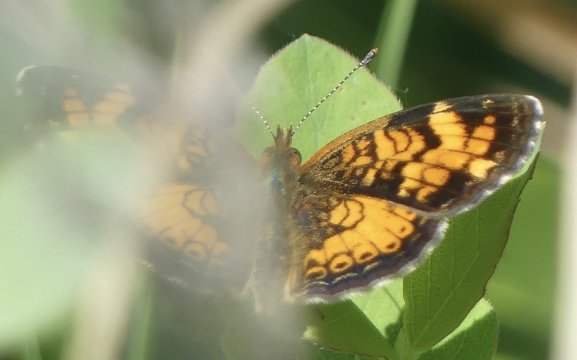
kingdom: Animalia
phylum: Arthropoda
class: Insecta
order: Lepidoptera
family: Nymphalidae
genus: Phyciodes
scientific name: Phyciodes
